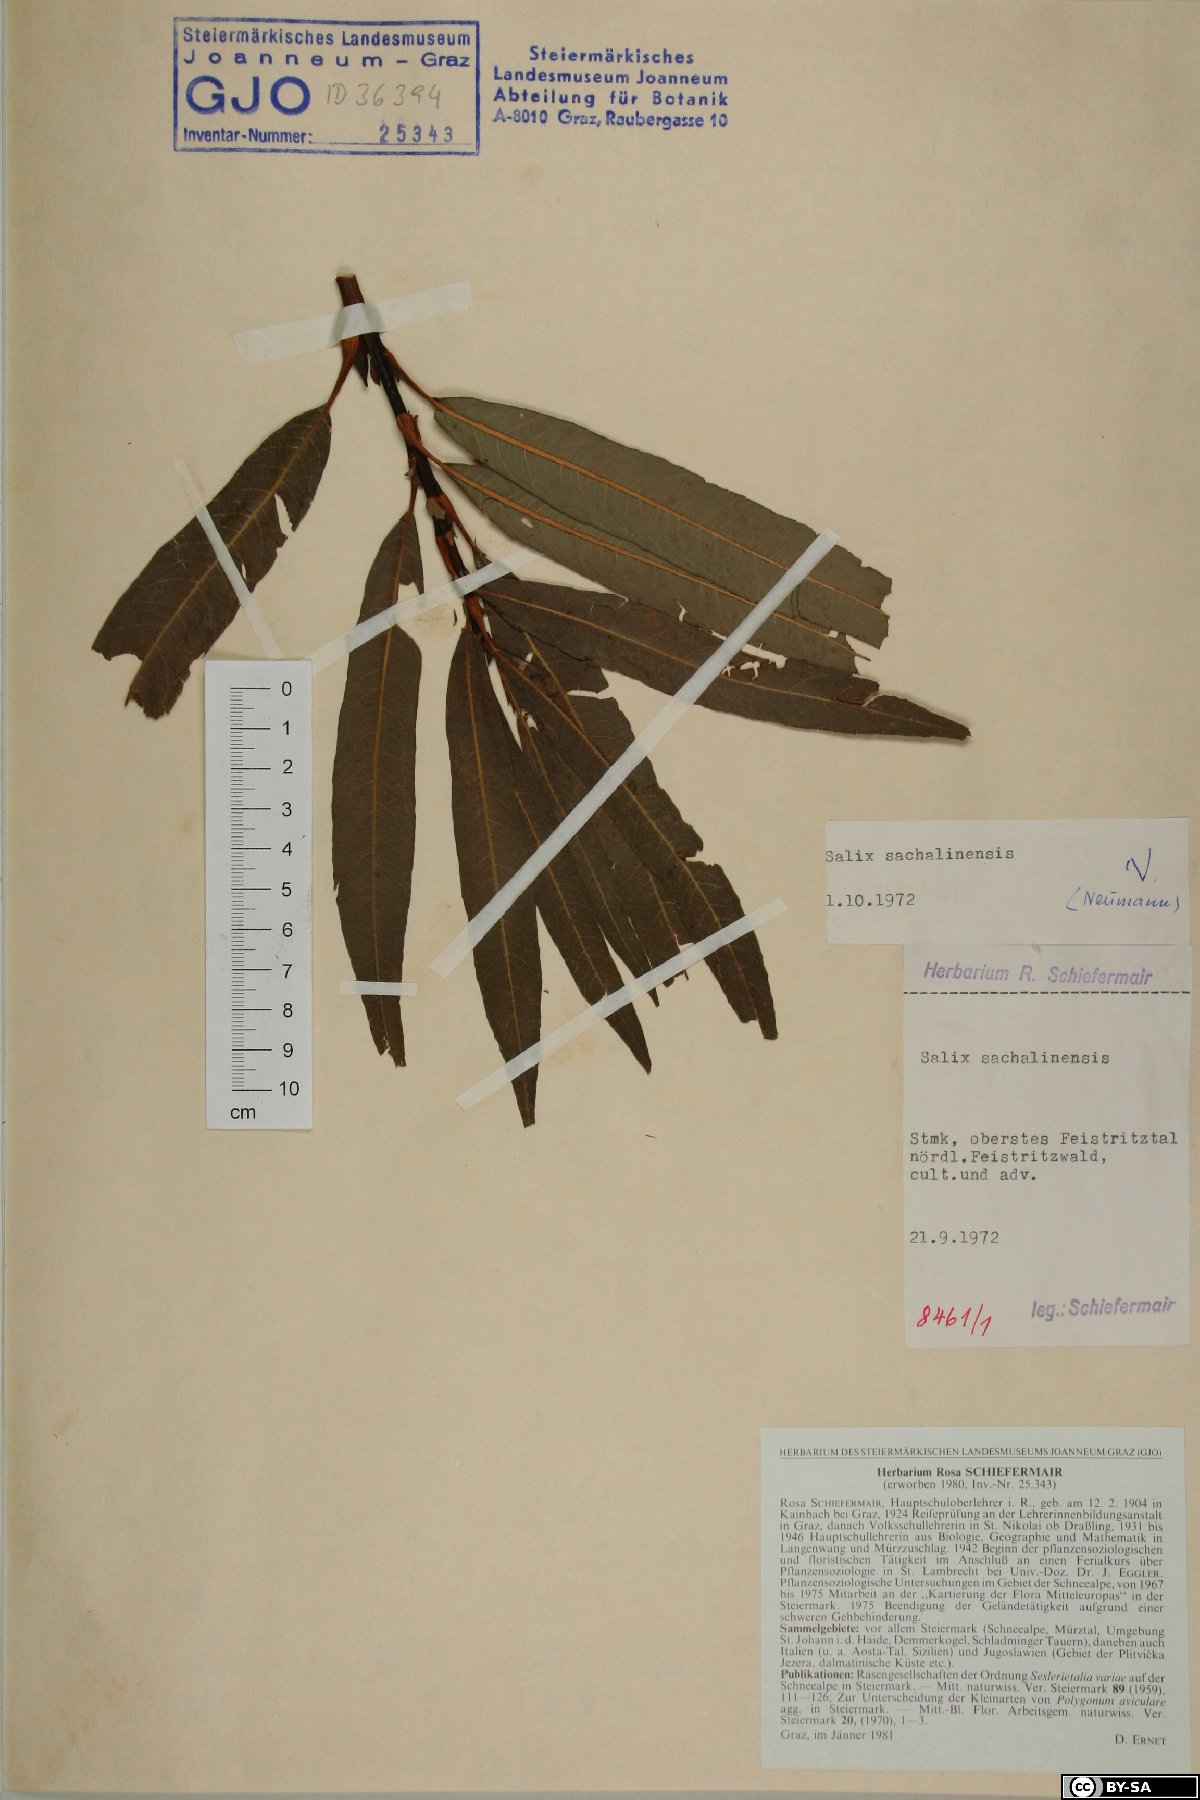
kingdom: Plantae
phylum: Tracheophyta
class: Magnoliopsida
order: Malpighiales
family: Salicaceae
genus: Salix
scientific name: Salix udensis
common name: Sachalin willow
